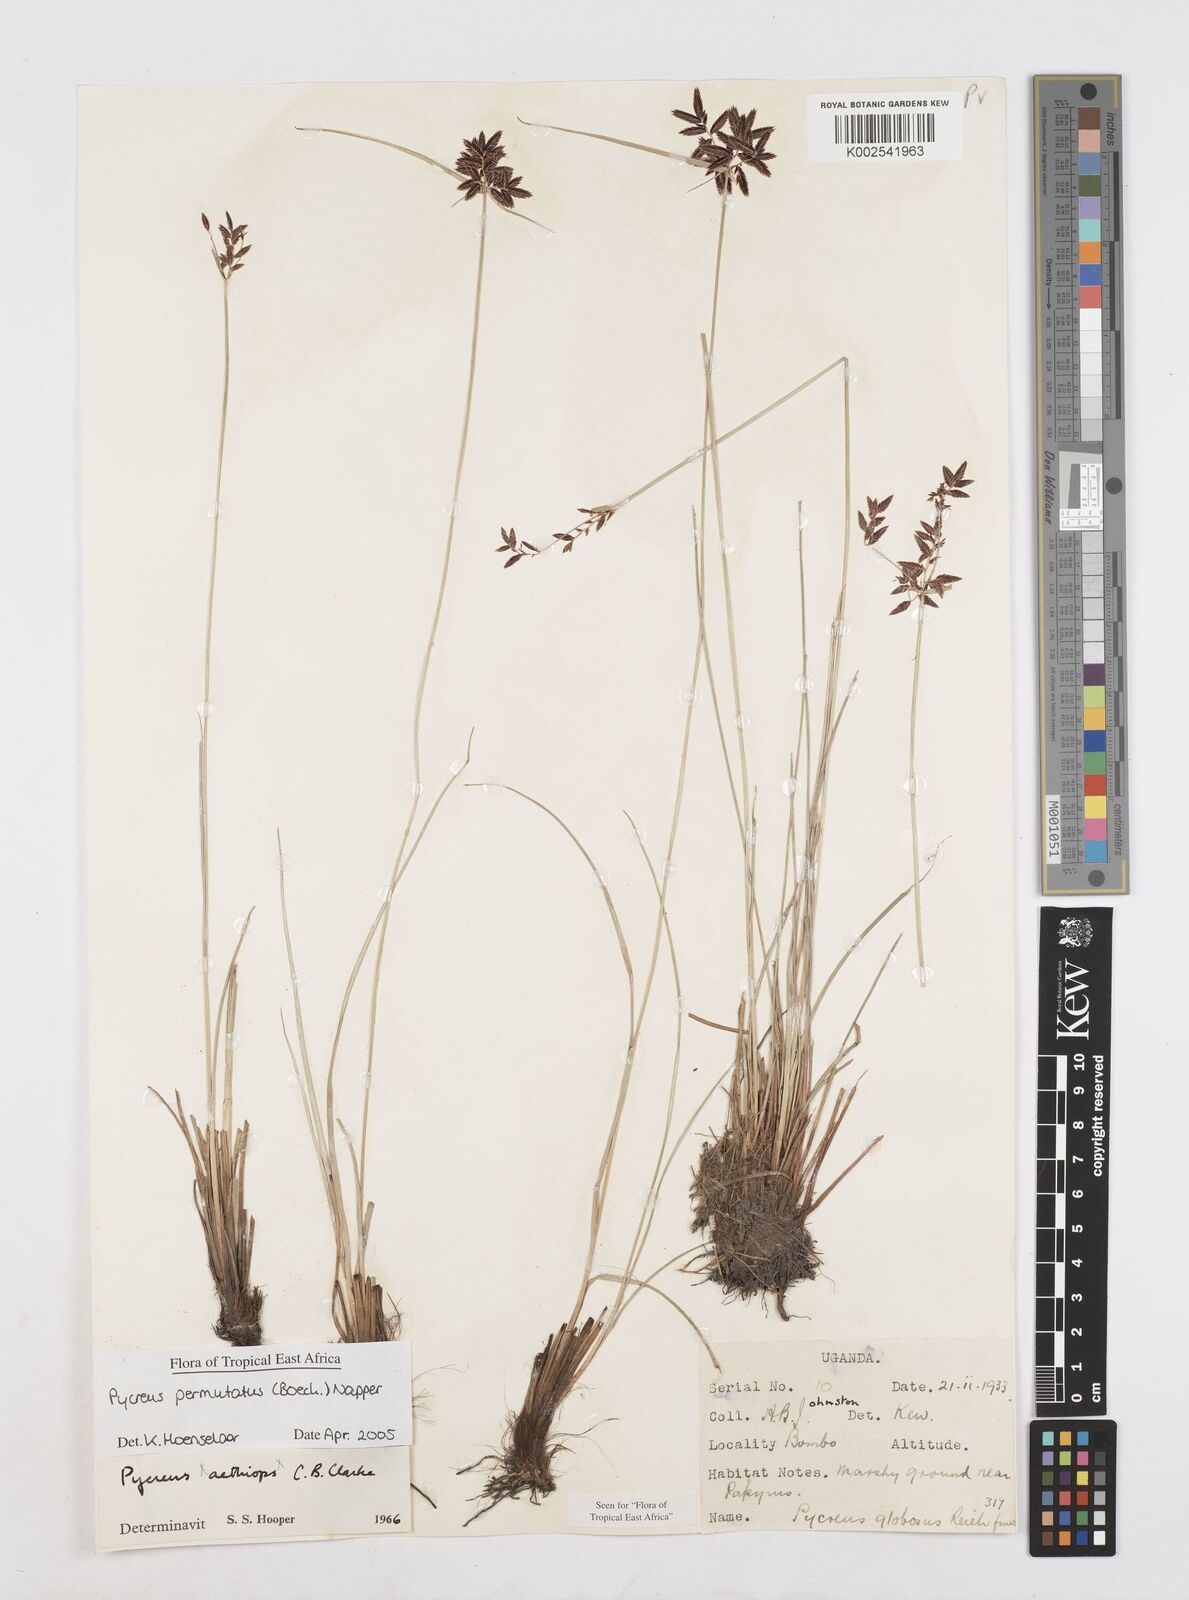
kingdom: Plantae
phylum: Tracheophyta
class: Liliopsida
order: Poales
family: Cyperaceae
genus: Cyperus
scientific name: Cyperus nigricans
